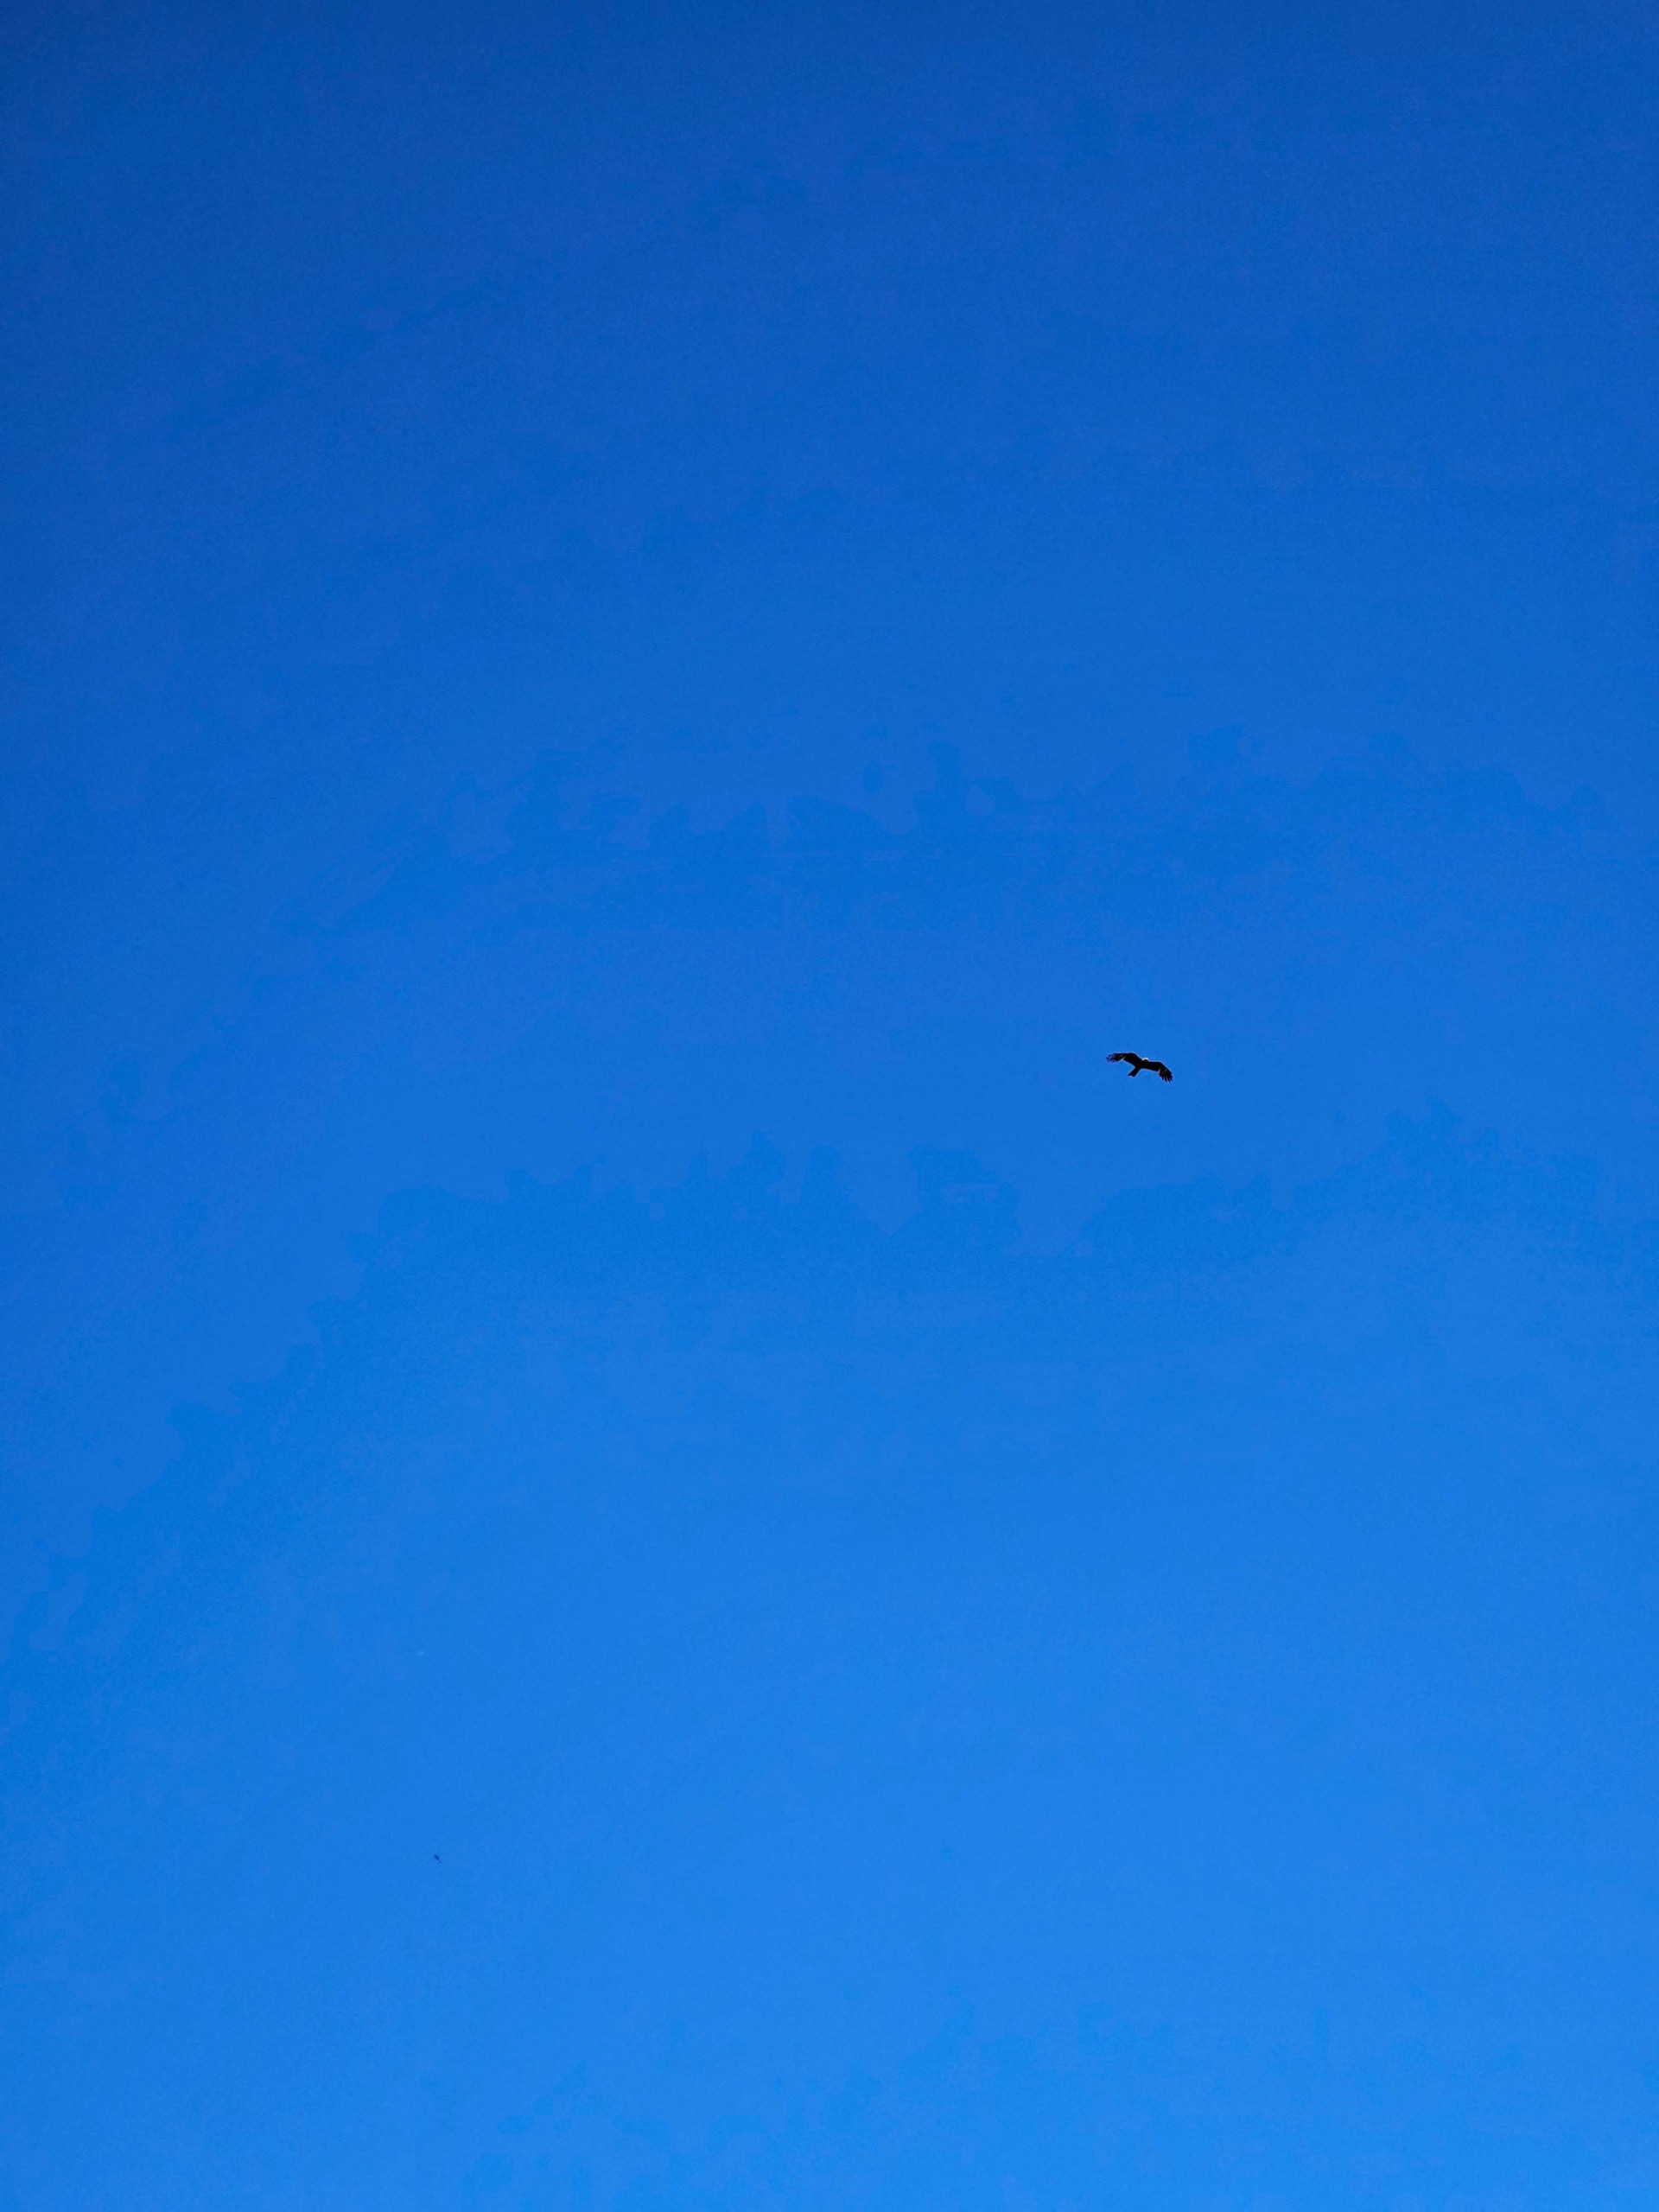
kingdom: Animalia
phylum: Chordata
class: Aves
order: Accipitriformes
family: Accipitridae
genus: Milvus
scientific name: Milvus milvus
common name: Rød glente
